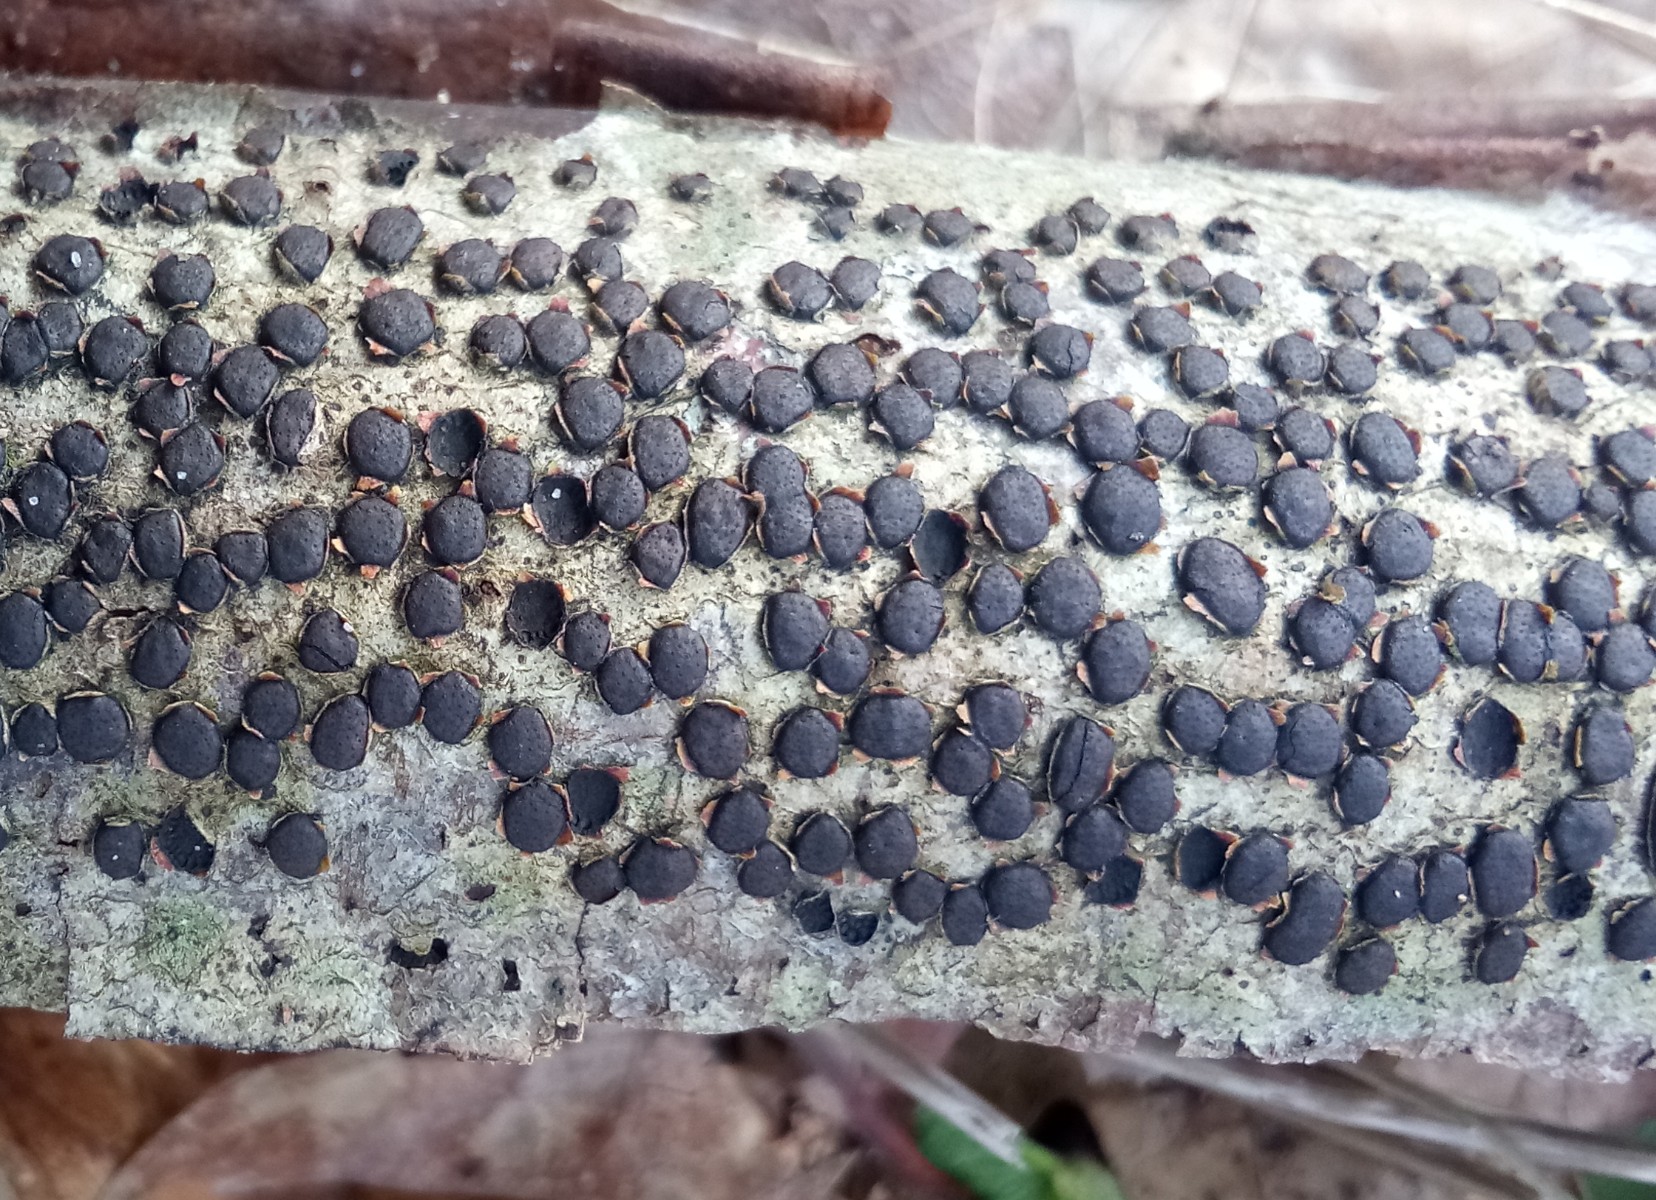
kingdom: Fungi
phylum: Ascomycota
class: Sordariomycetes
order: Xylariales
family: Diatrypaceae
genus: Diatrype
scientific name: Diatrype disciformis
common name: kant-kulskorpe
